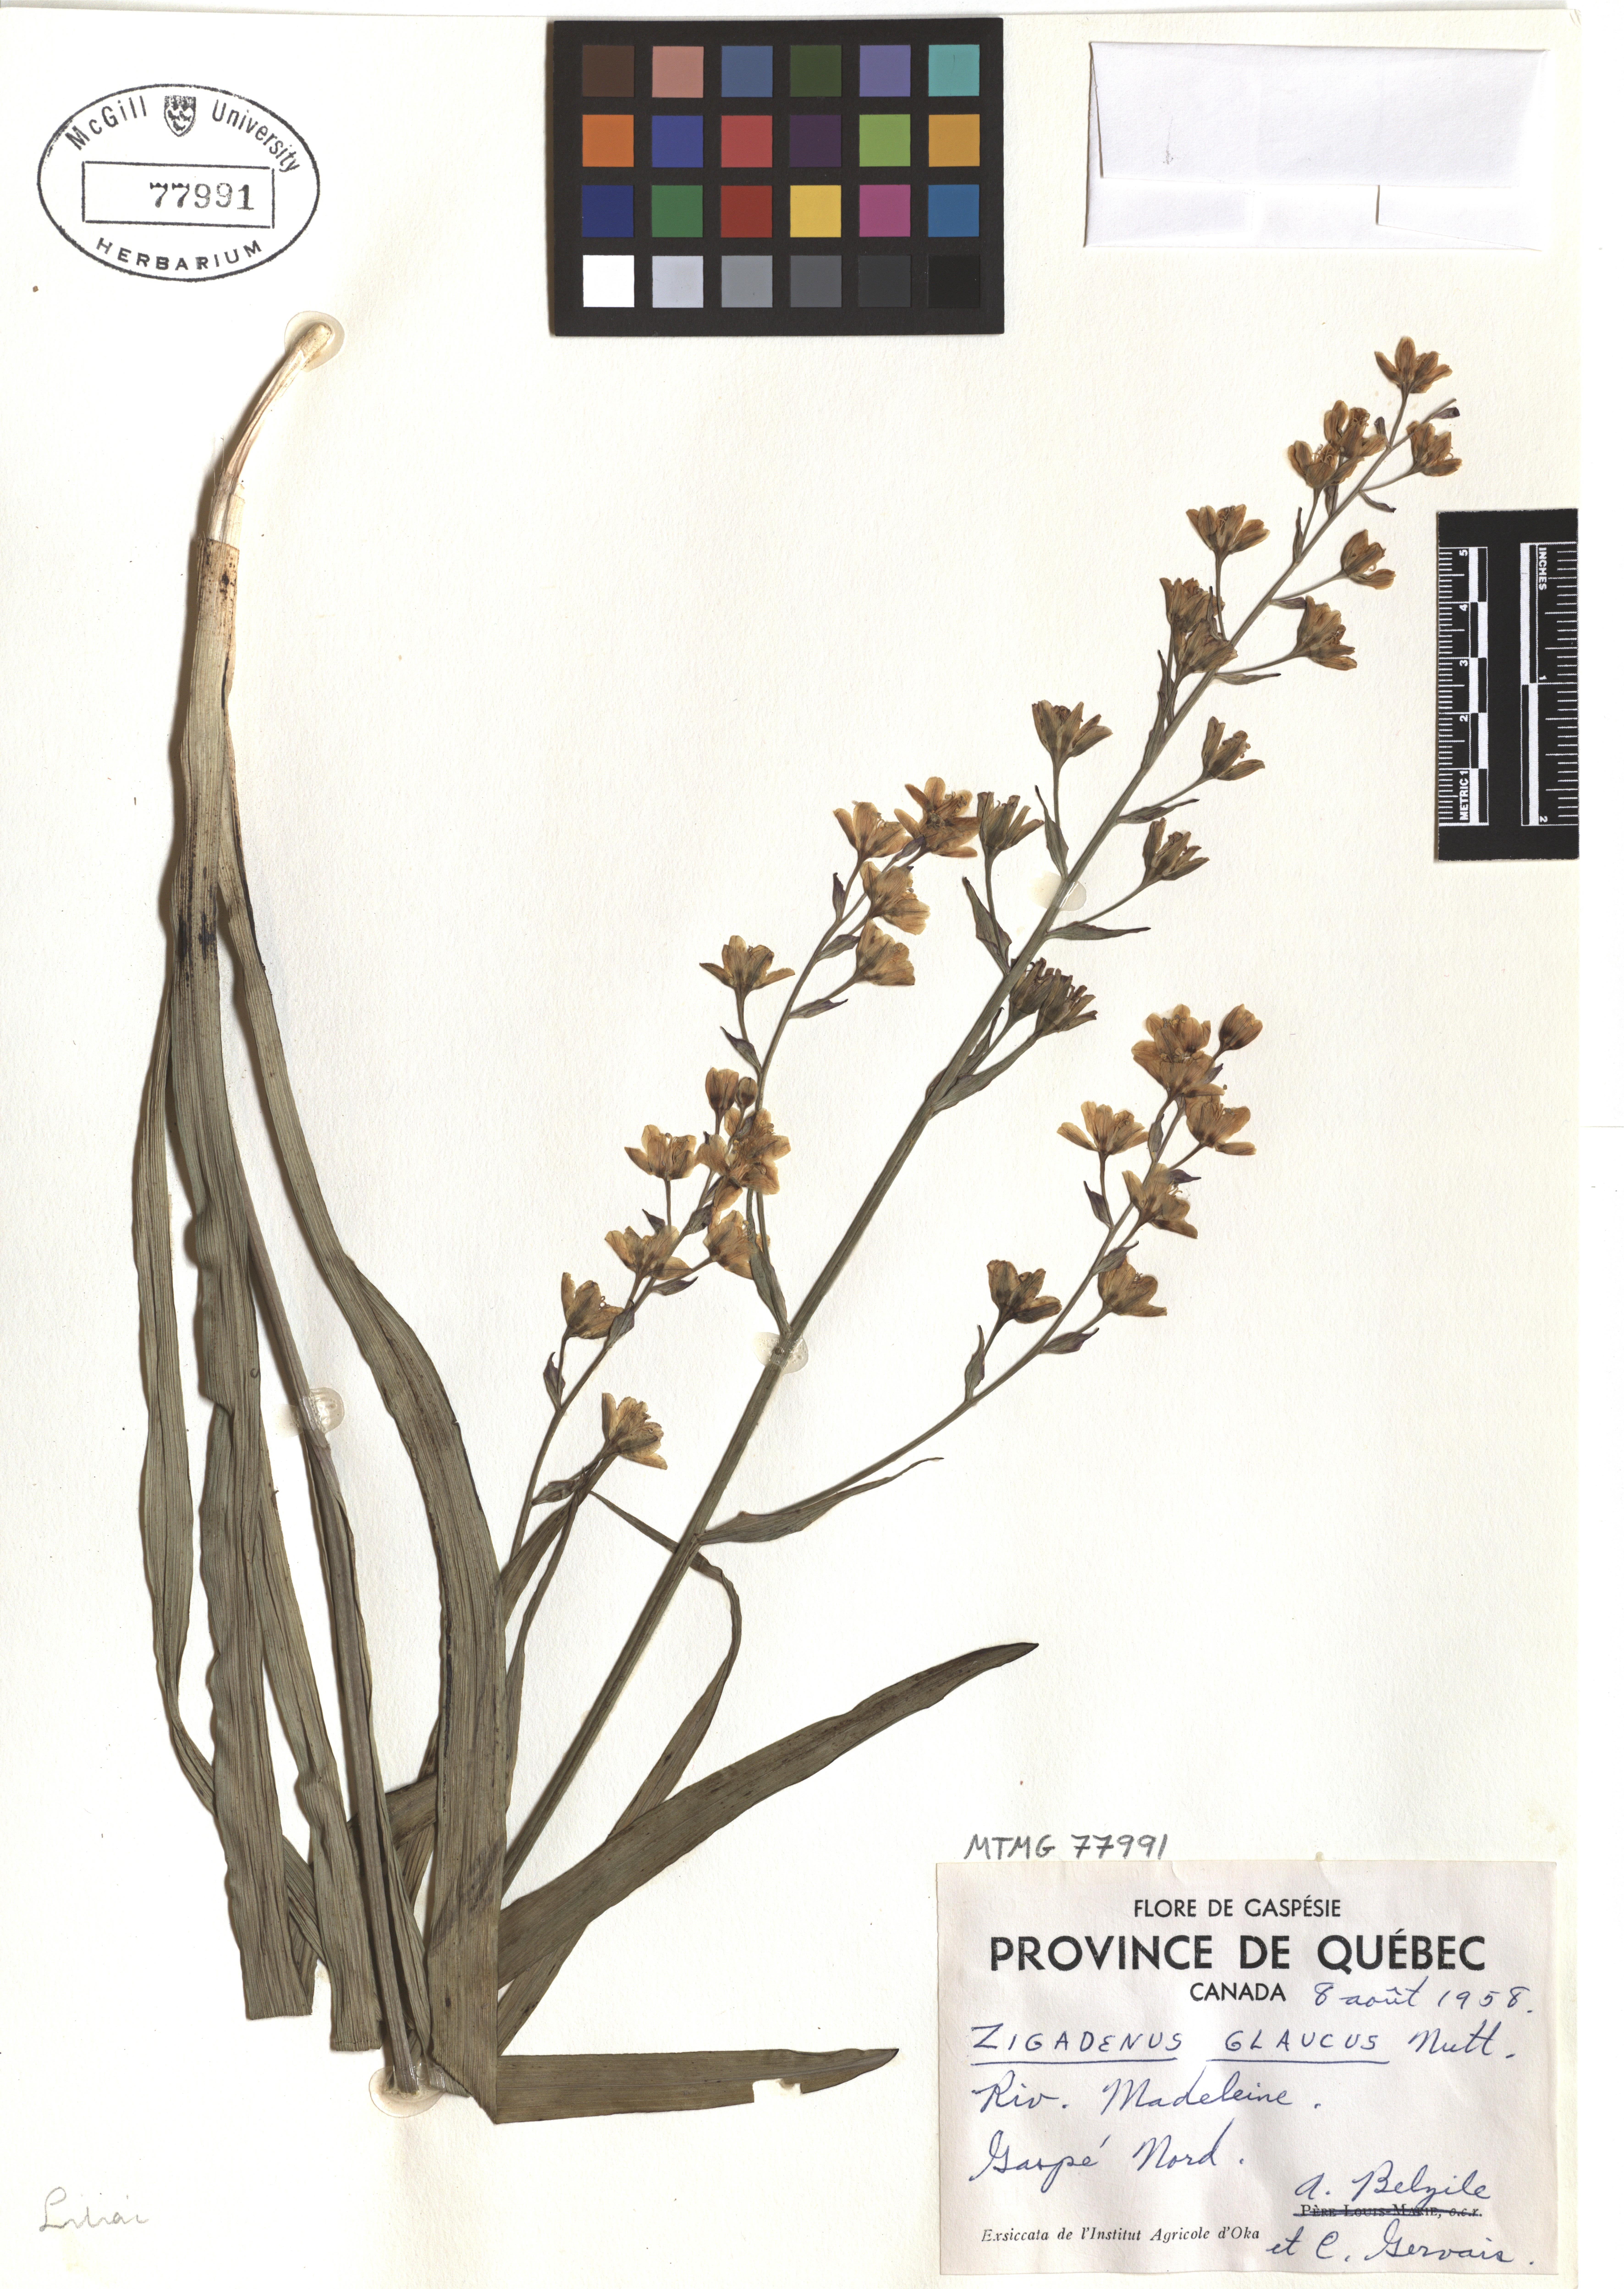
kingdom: Plantae
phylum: Tracheophyta
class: Liliopsida
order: Liliales
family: Melanthiaceae
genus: Anticlea
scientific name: Anticlea elegans
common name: Mountain death camas
